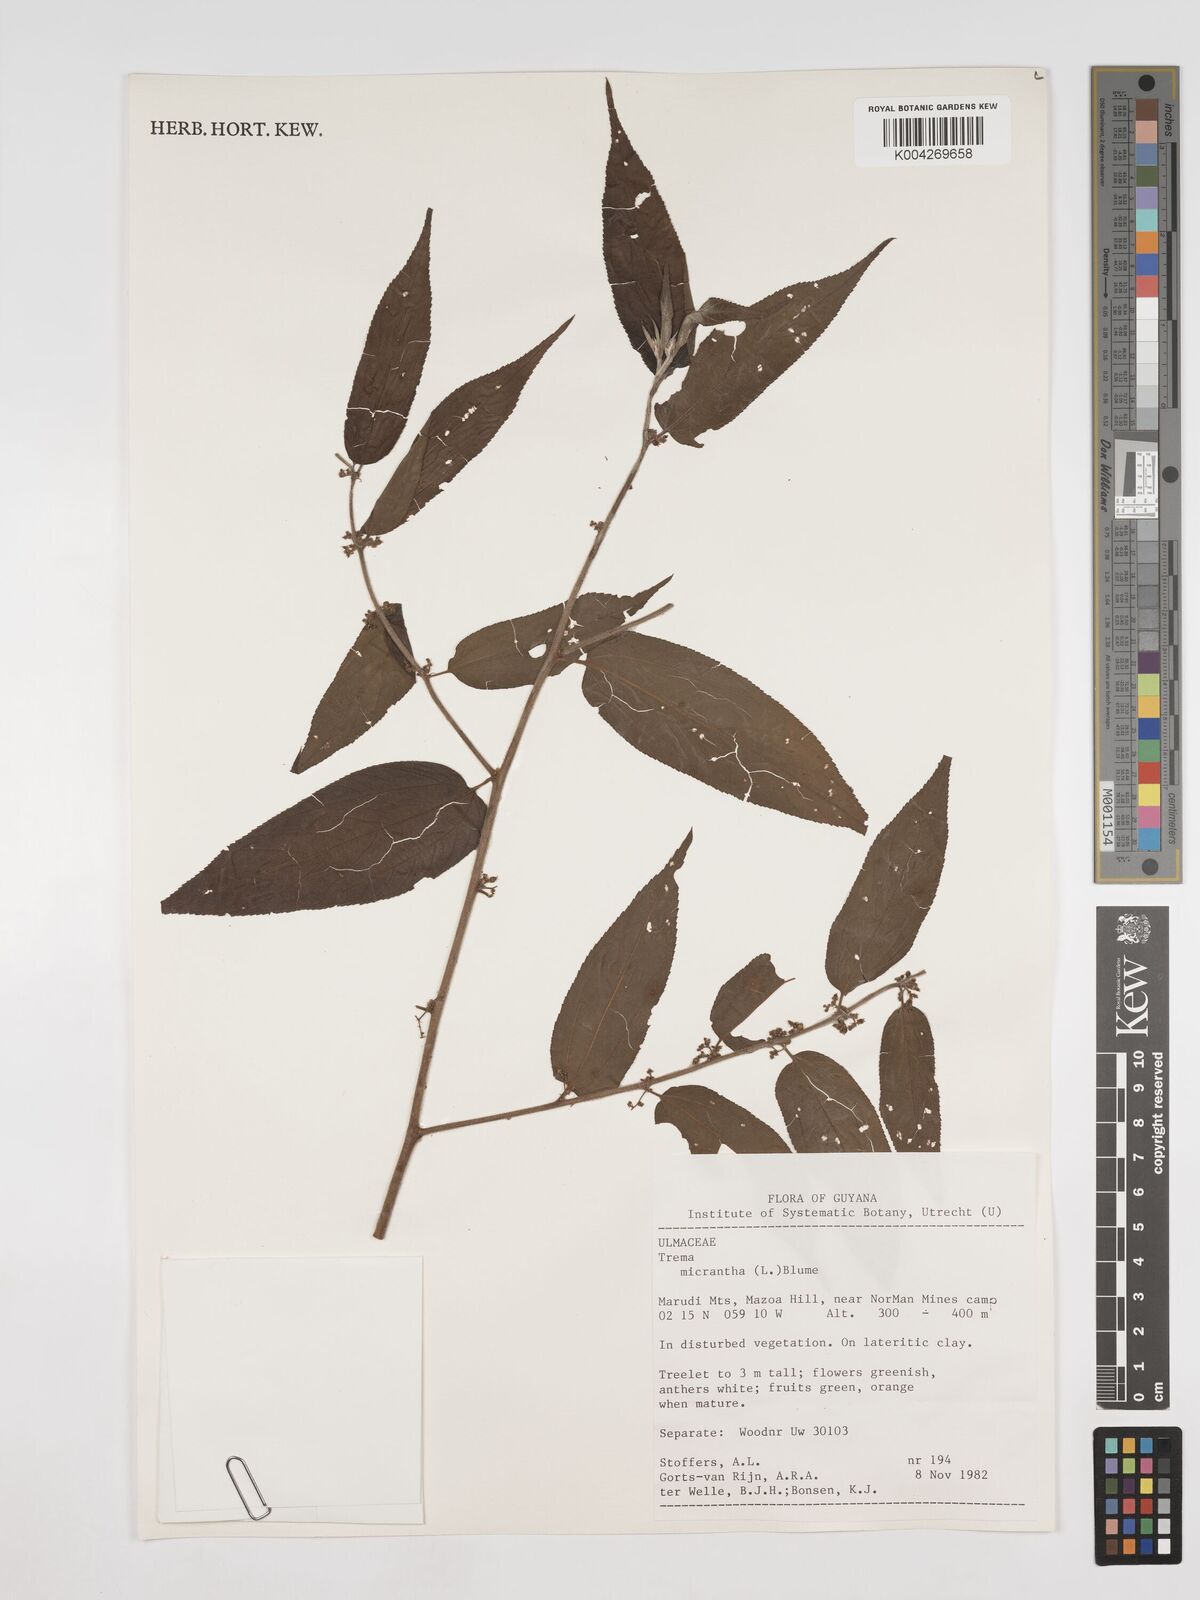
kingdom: Plantae
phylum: Tracheophyta
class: Magnoliopsida
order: Rosales
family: Cannabaceae
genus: Trema
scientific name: Trema micranthum
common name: Jamaican nettletree
